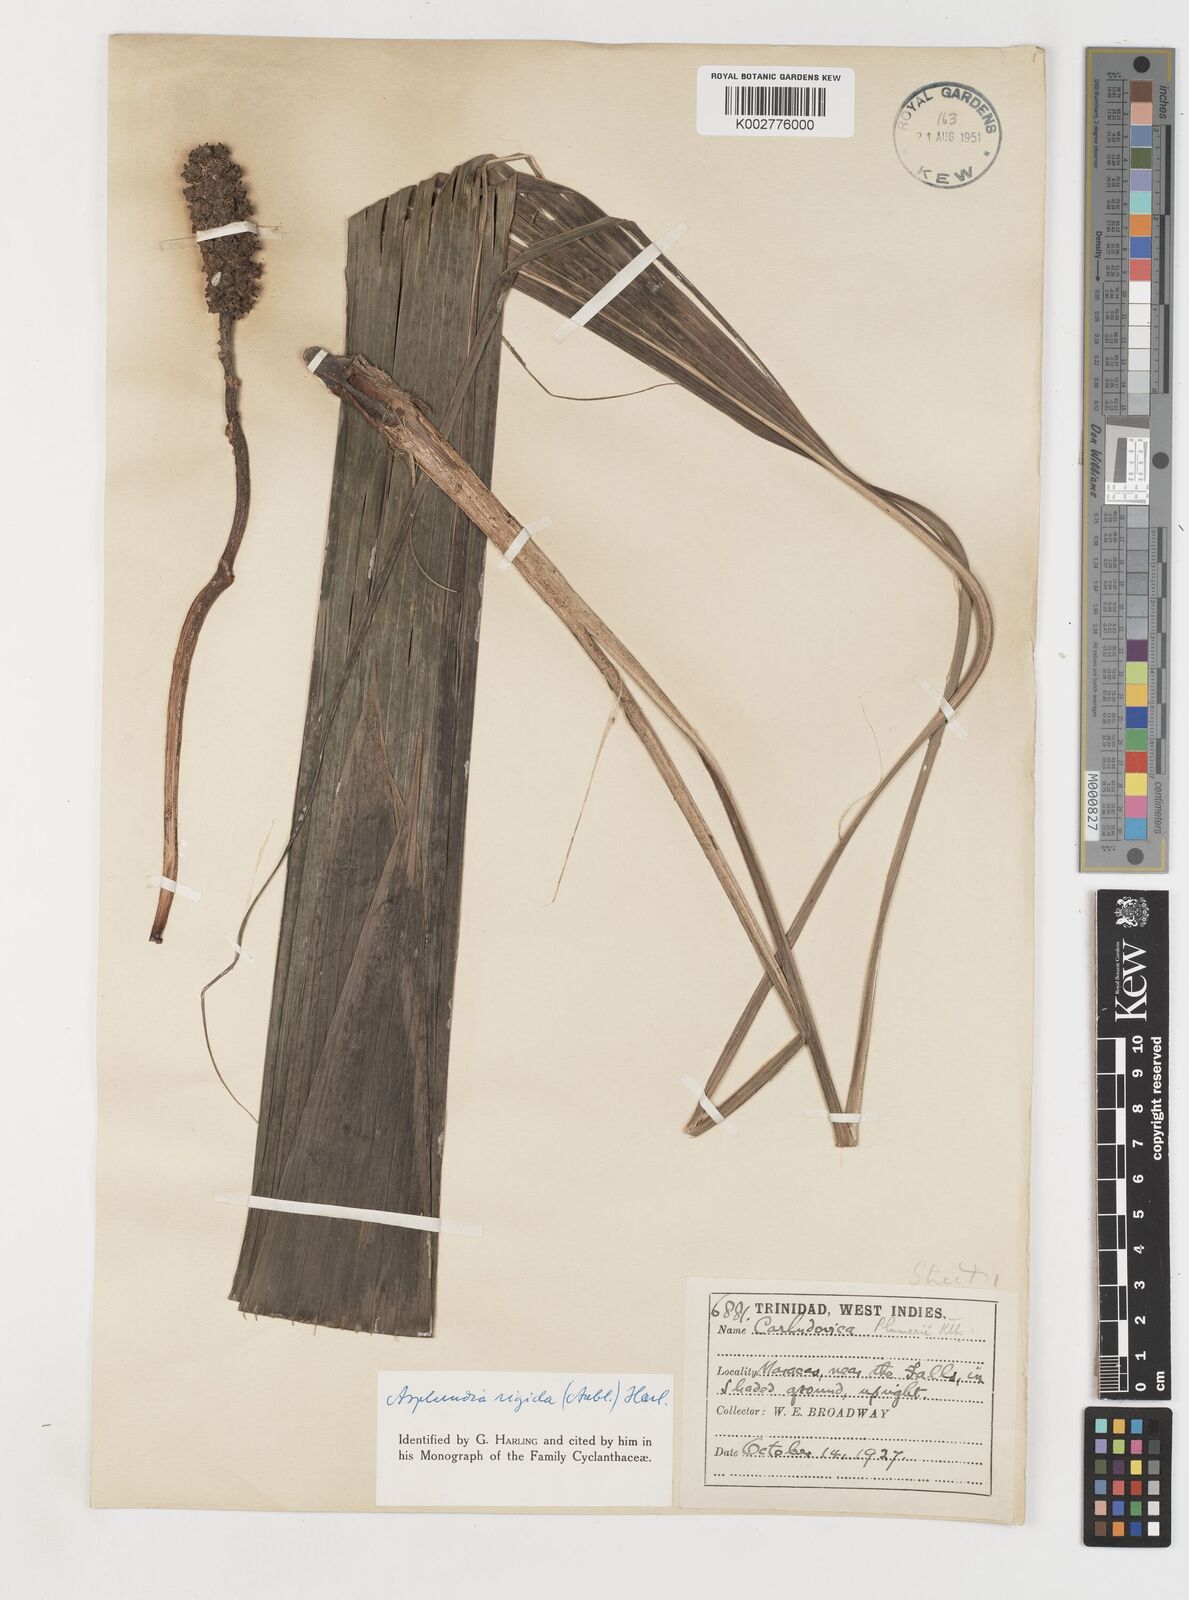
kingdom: Plantae
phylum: Tracheophyta
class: Liliopsida
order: Pandanales
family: Cyclanthaceae
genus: Asplundia
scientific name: Asplundia rigida
